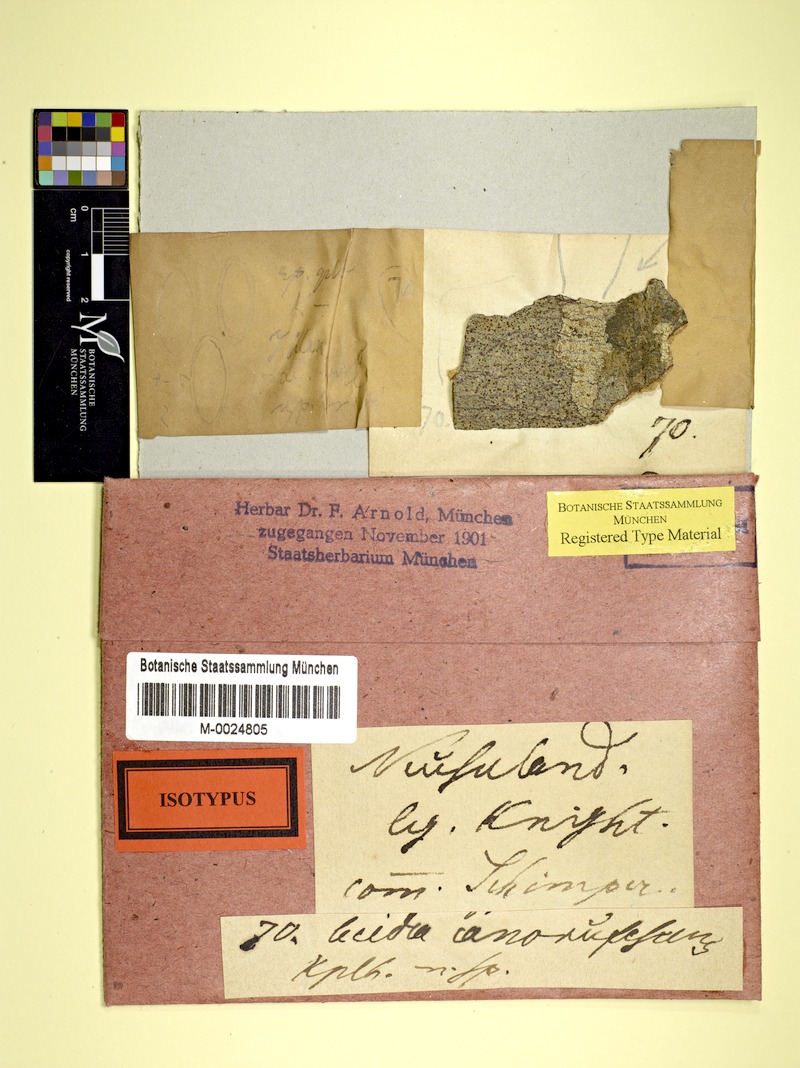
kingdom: Fungi
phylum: Ascomycota
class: Lecanoromycetes
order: Lecanorales
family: Malmideaceae
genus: Australidea
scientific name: Australidea canorufescens
